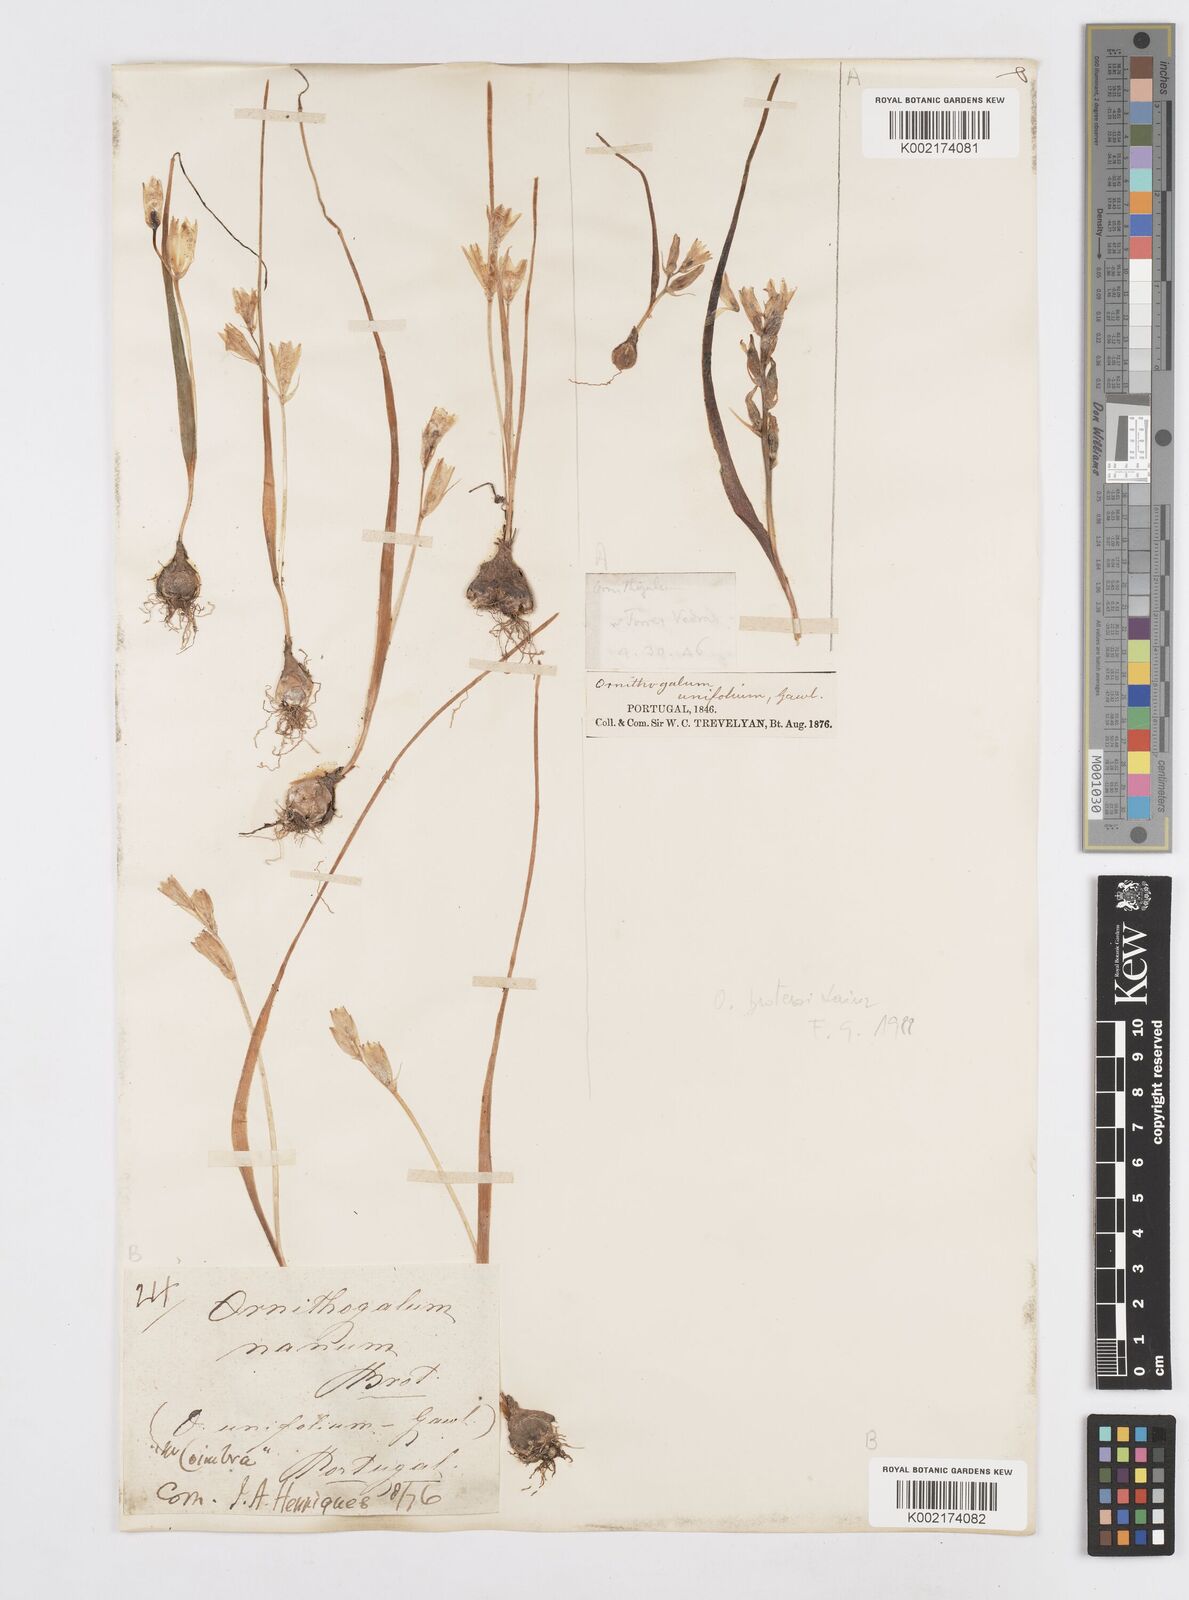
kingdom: Plantae
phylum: Tracheophyta
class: Liliopsida
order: Asparagales
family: Asparagaceae
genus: Ornithogalum
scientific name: Ornithogalum broteroi
